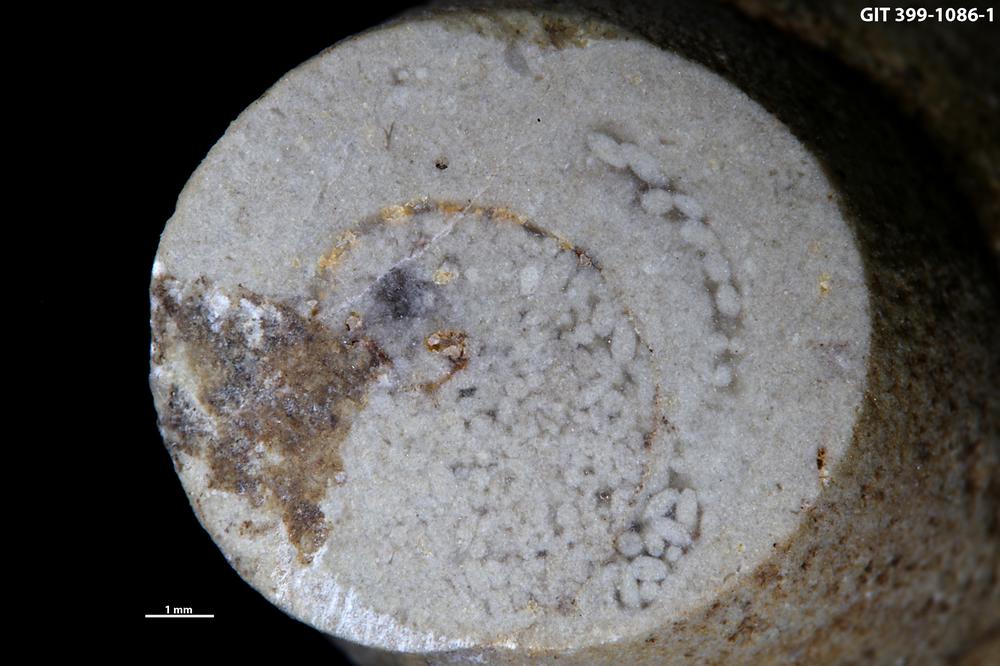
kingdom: Animalia
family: Coprulidae
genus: Coprulus
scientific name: Coprulus
